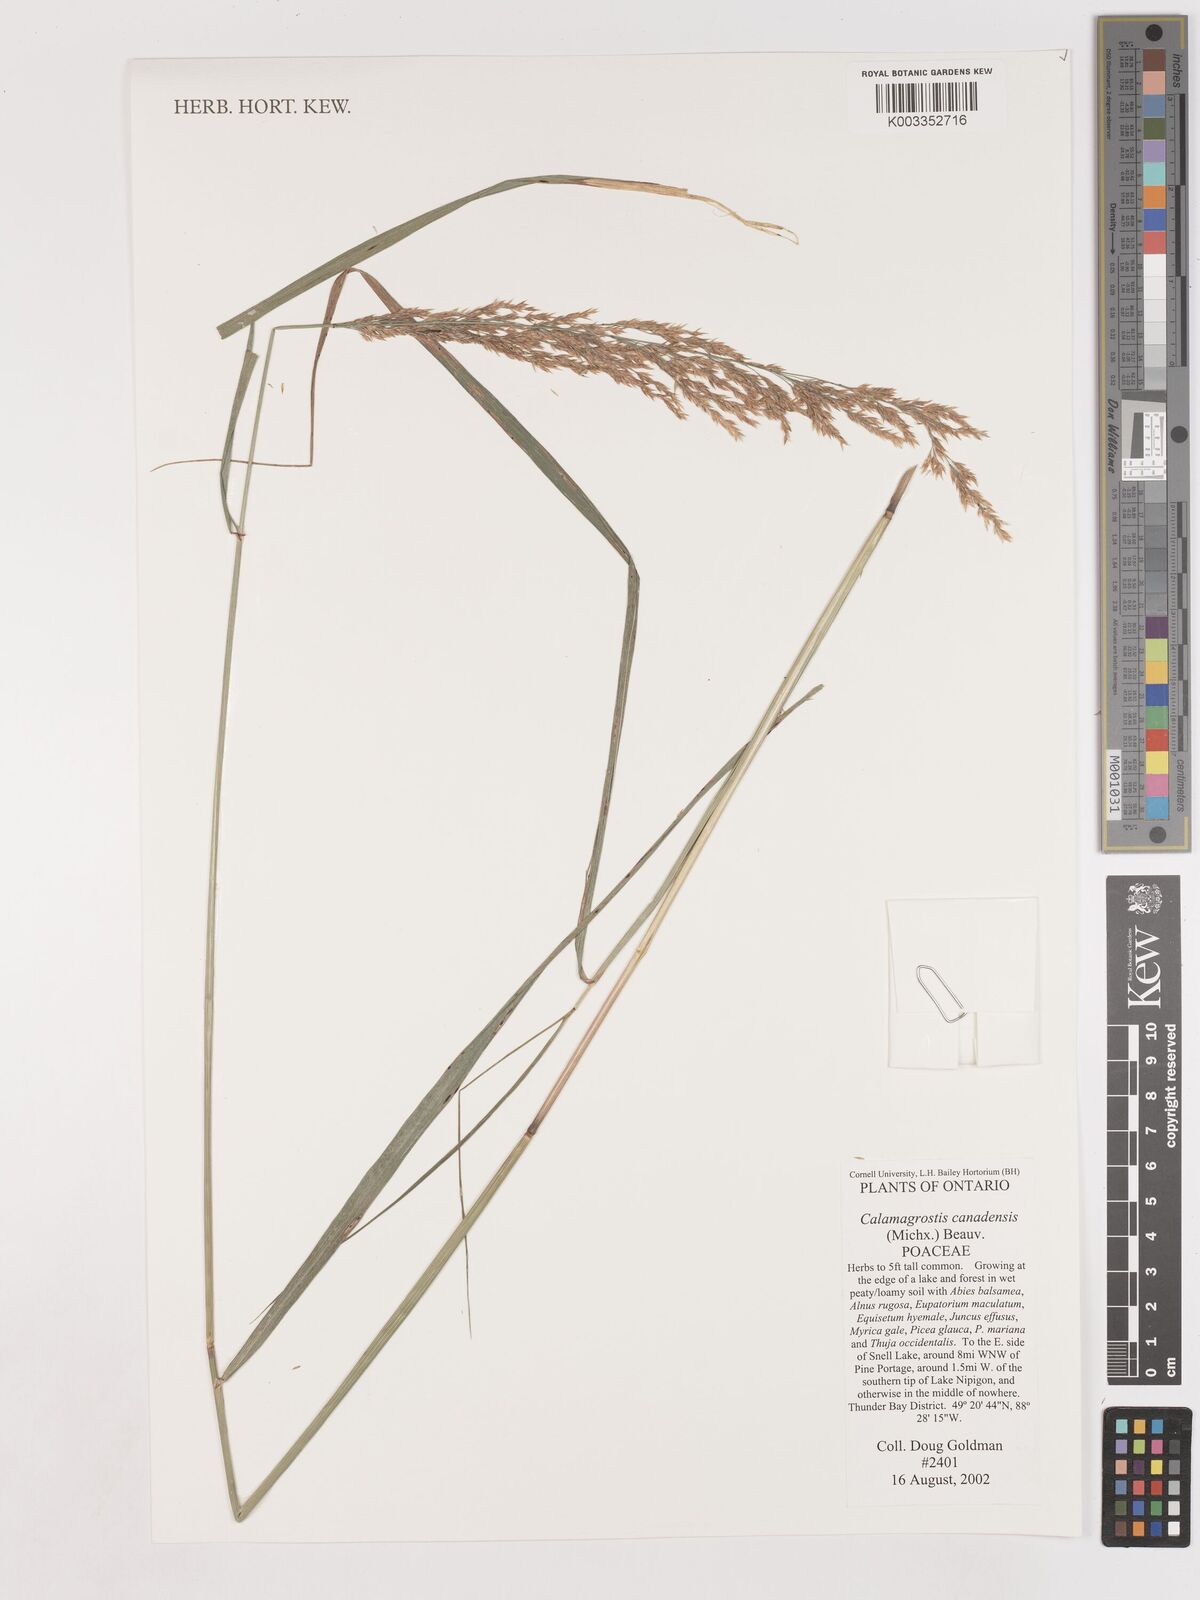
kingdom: Plantae
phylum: Tracheophyta
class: Liliopsida
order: Poales
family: Poaceae
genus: Calamagrostis
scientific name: Calamagrostis canadensis
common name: Canada bluejoint
